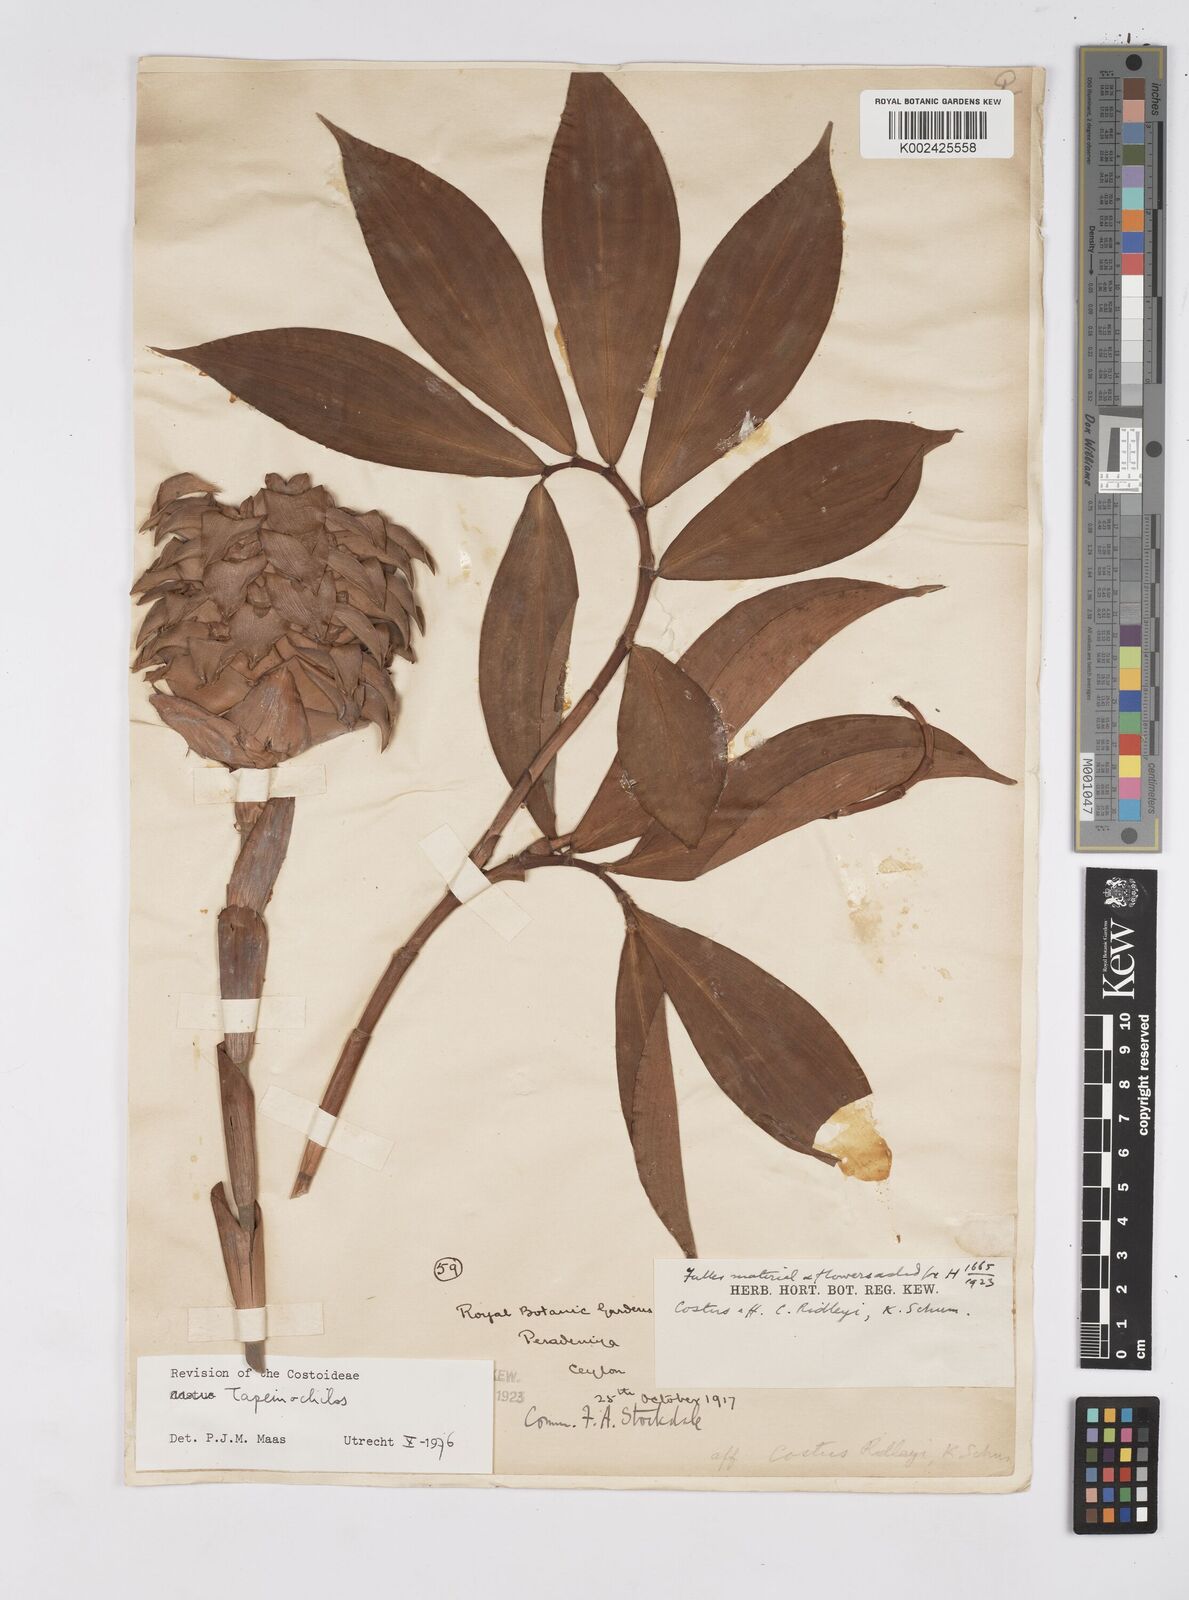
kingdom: Plantae
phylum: Tracheophyta
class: Liliopsida
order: Zingiberales
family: Costaceae
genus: Tapeinochilos
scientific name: Tapeinochilos
